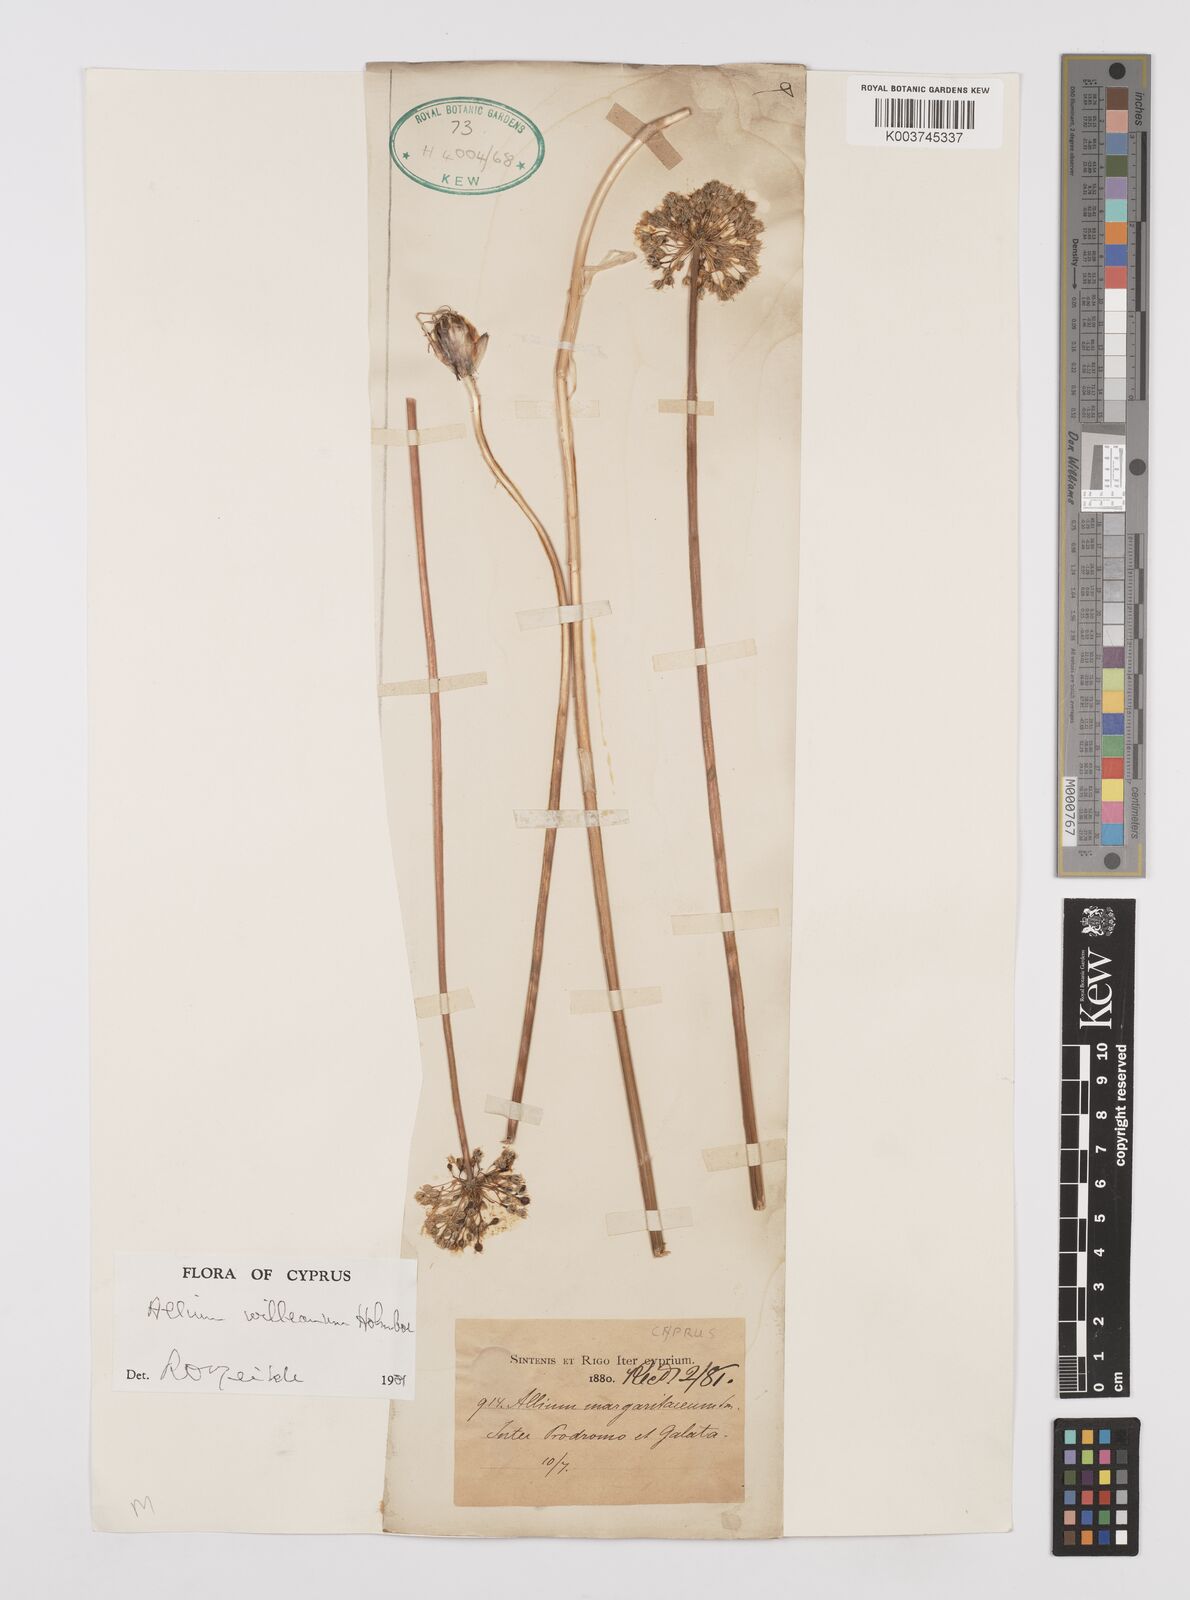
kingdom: Plantae
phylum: Tracheophyta
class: Liliopsida
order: Asparagales
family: Amaryllidaceae
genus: Allium
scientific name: Allium willeanum
